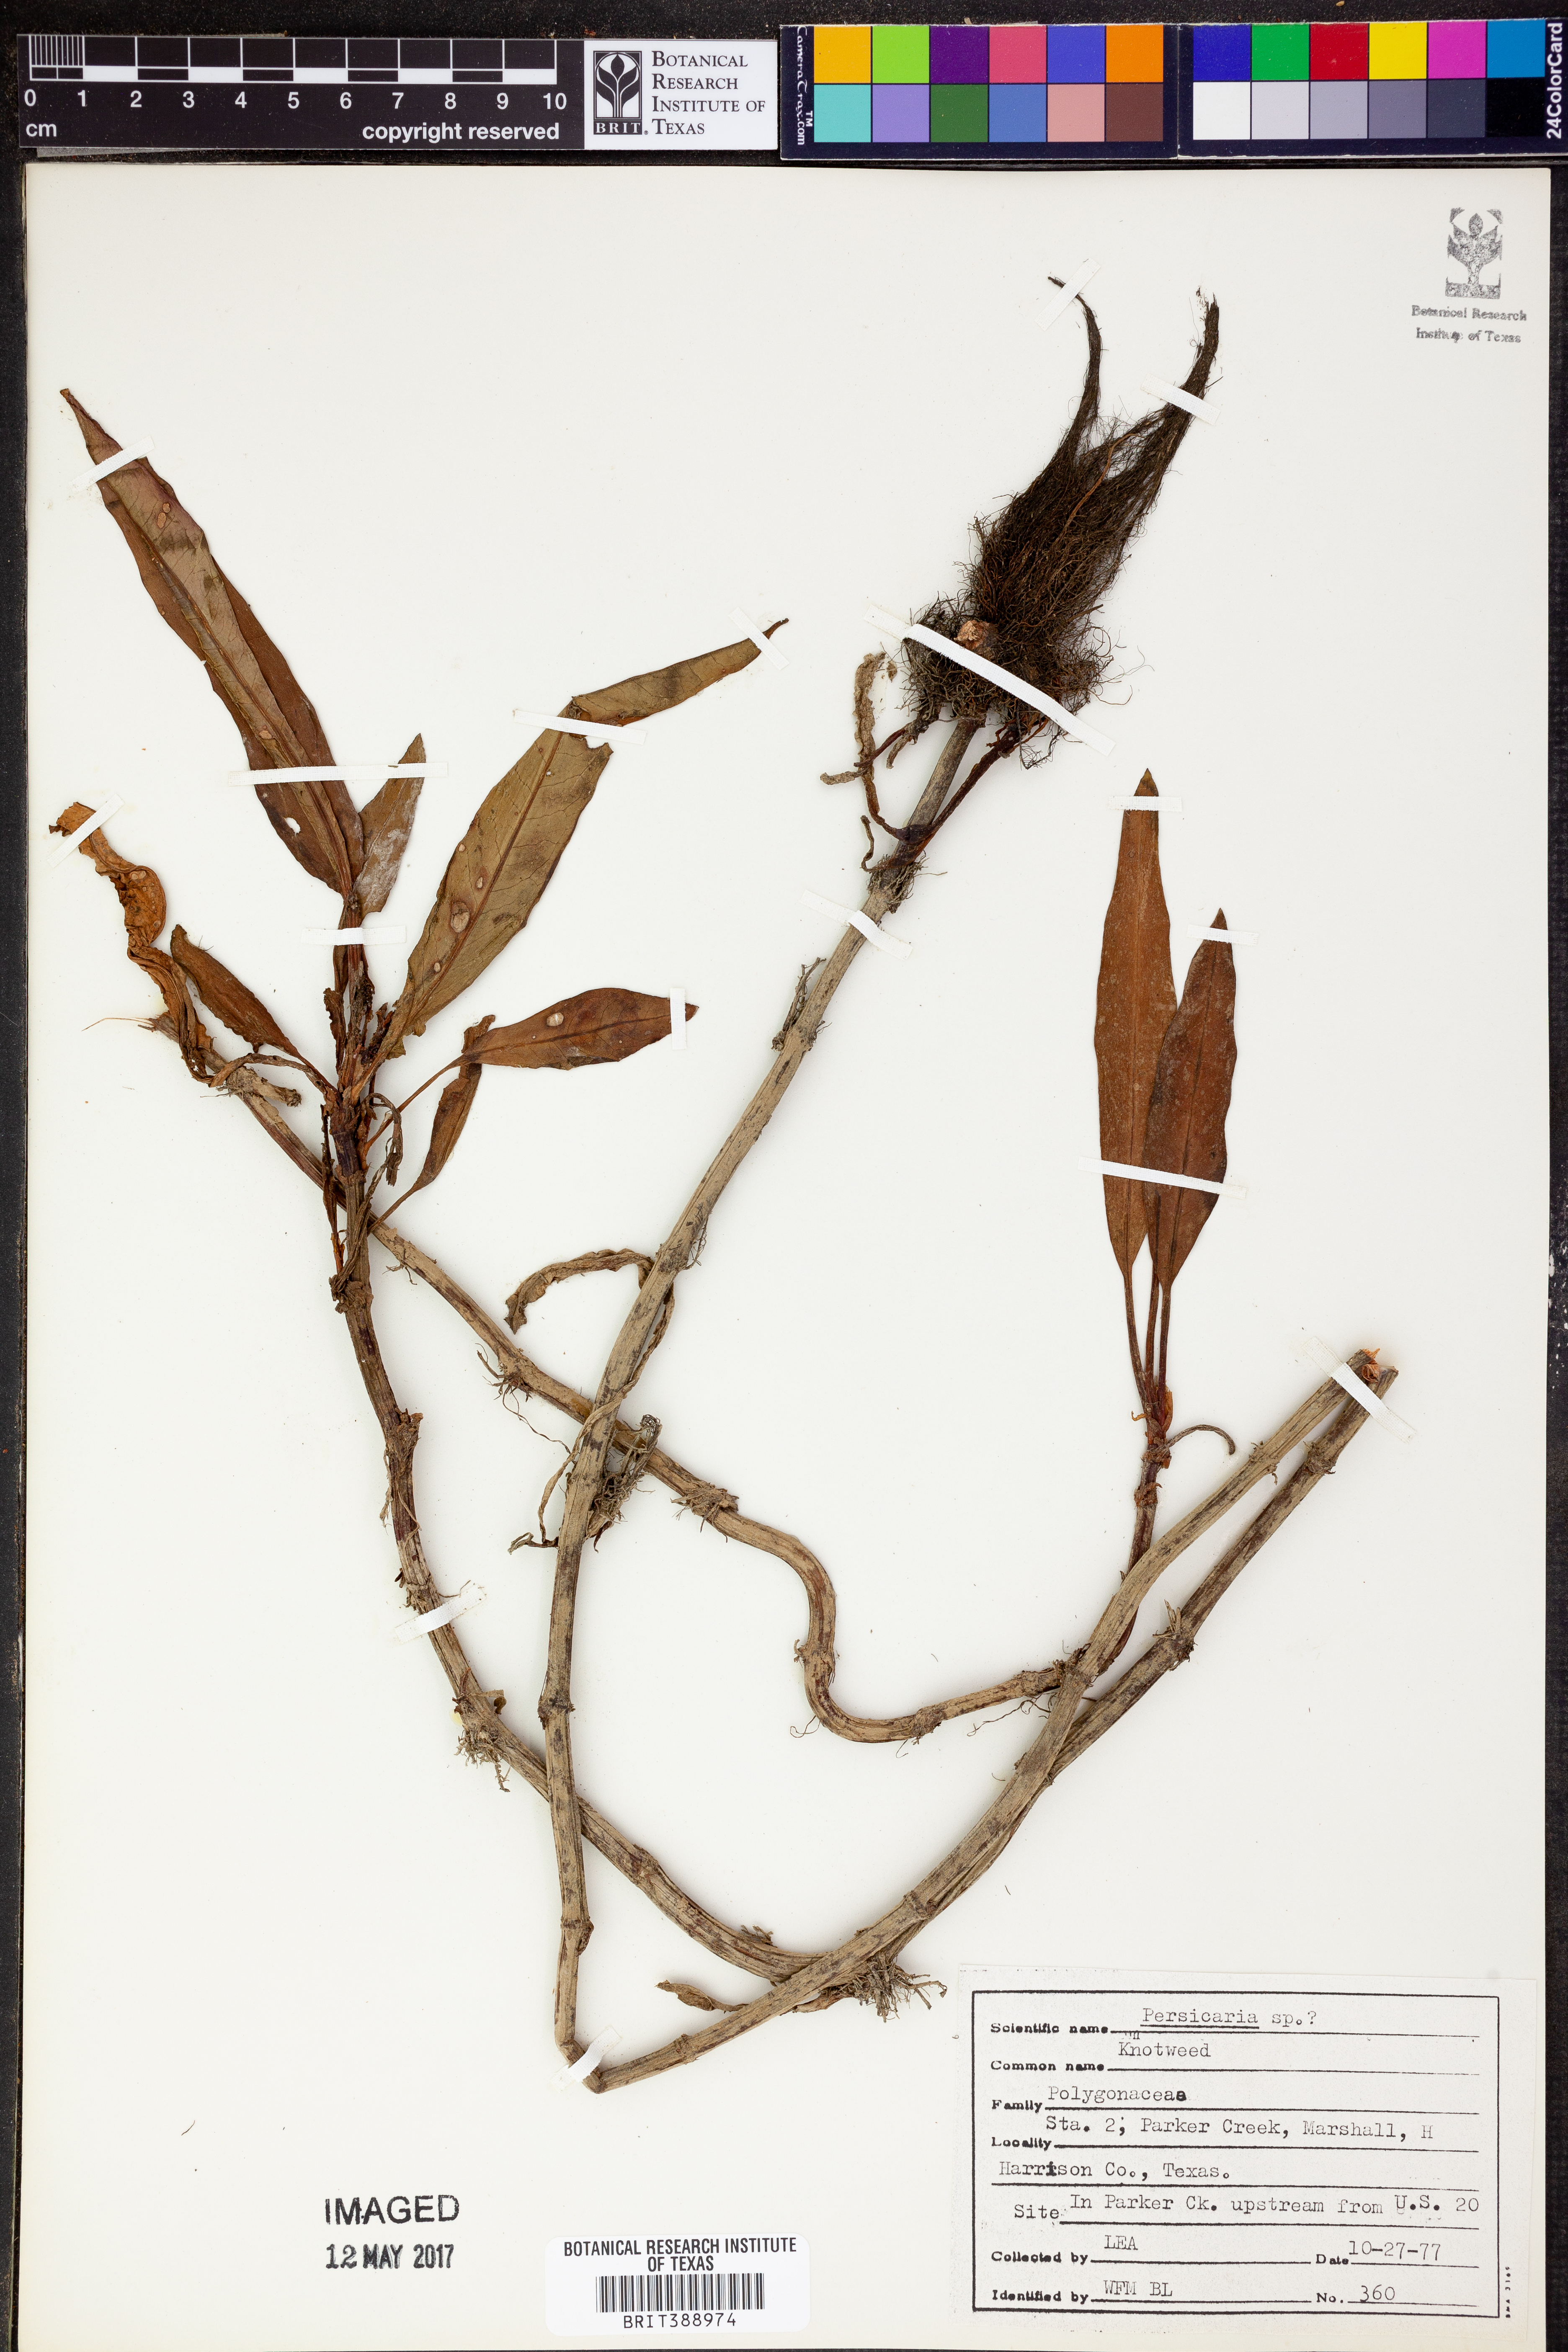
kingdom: Plantae
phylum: Tracheophyta
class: Magnoliopsida
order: Caryophyllales
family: Polygonaceae
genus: Persicaria
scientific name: Persicaria
